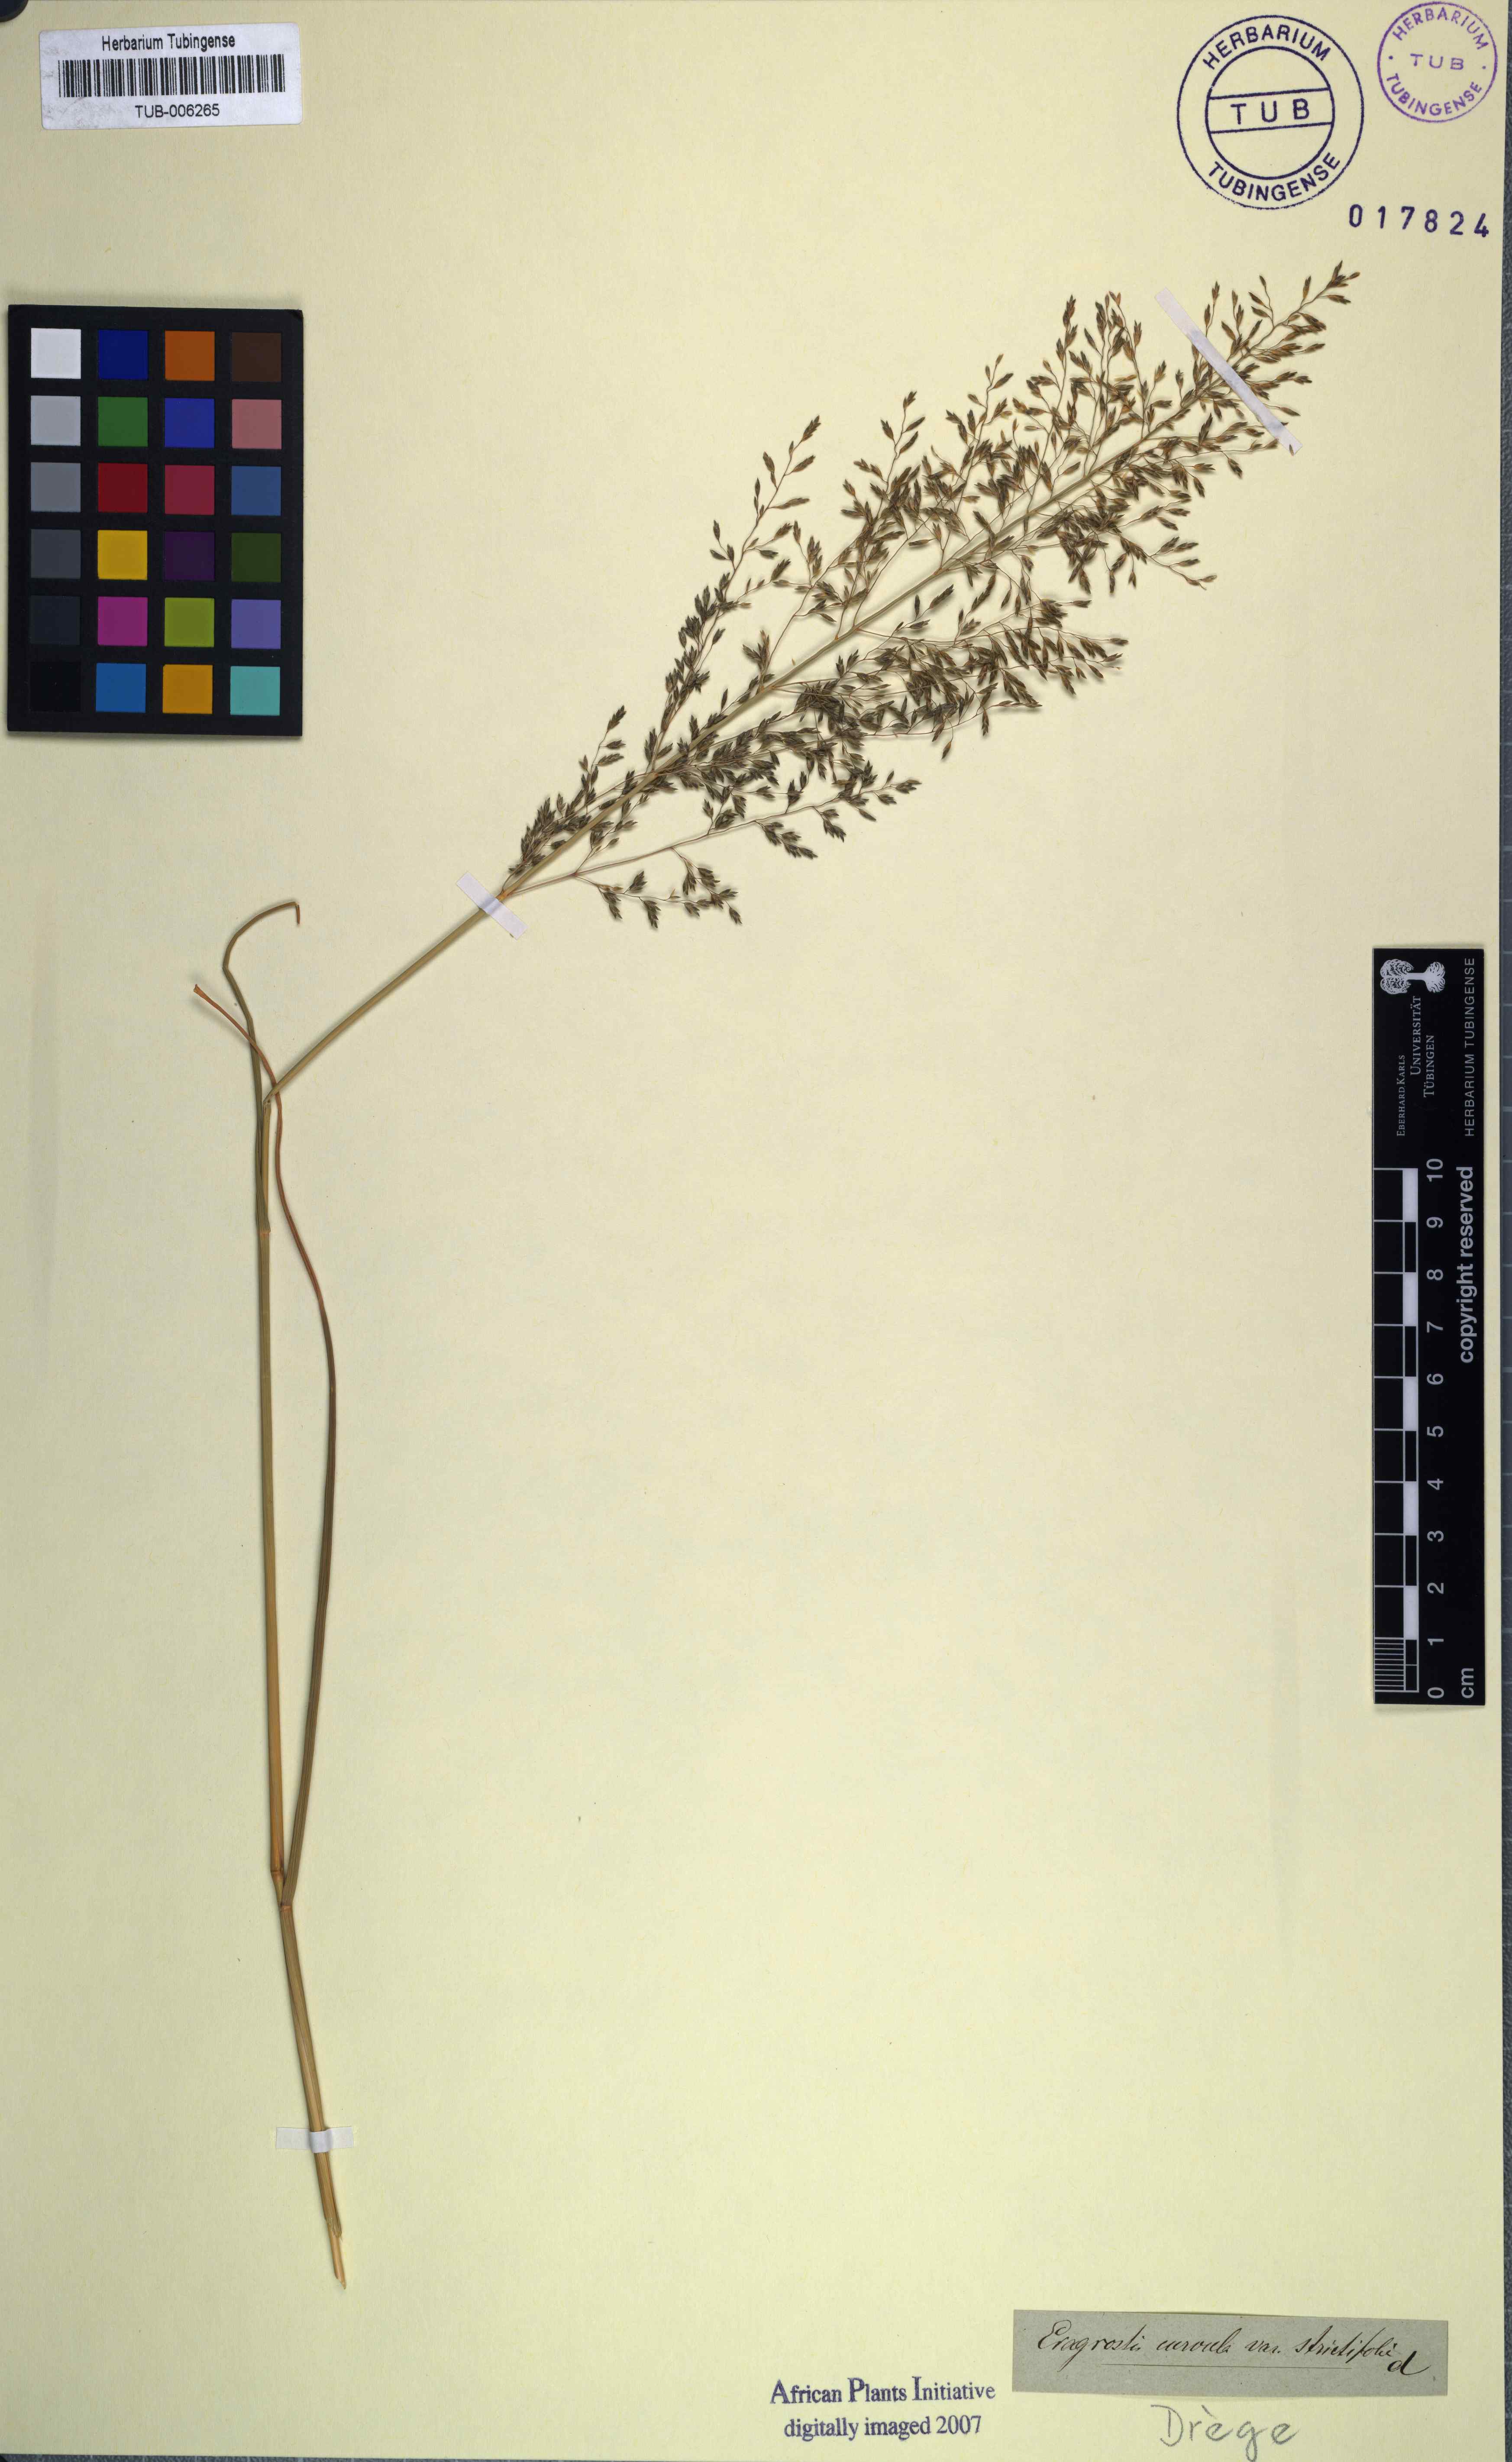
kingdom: Plantae
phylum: Tracheophyta
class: Liliopsida
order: Poales
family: Poaceae
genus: Eragrostis
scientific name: Eragrostis curvula
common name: African love-grass
